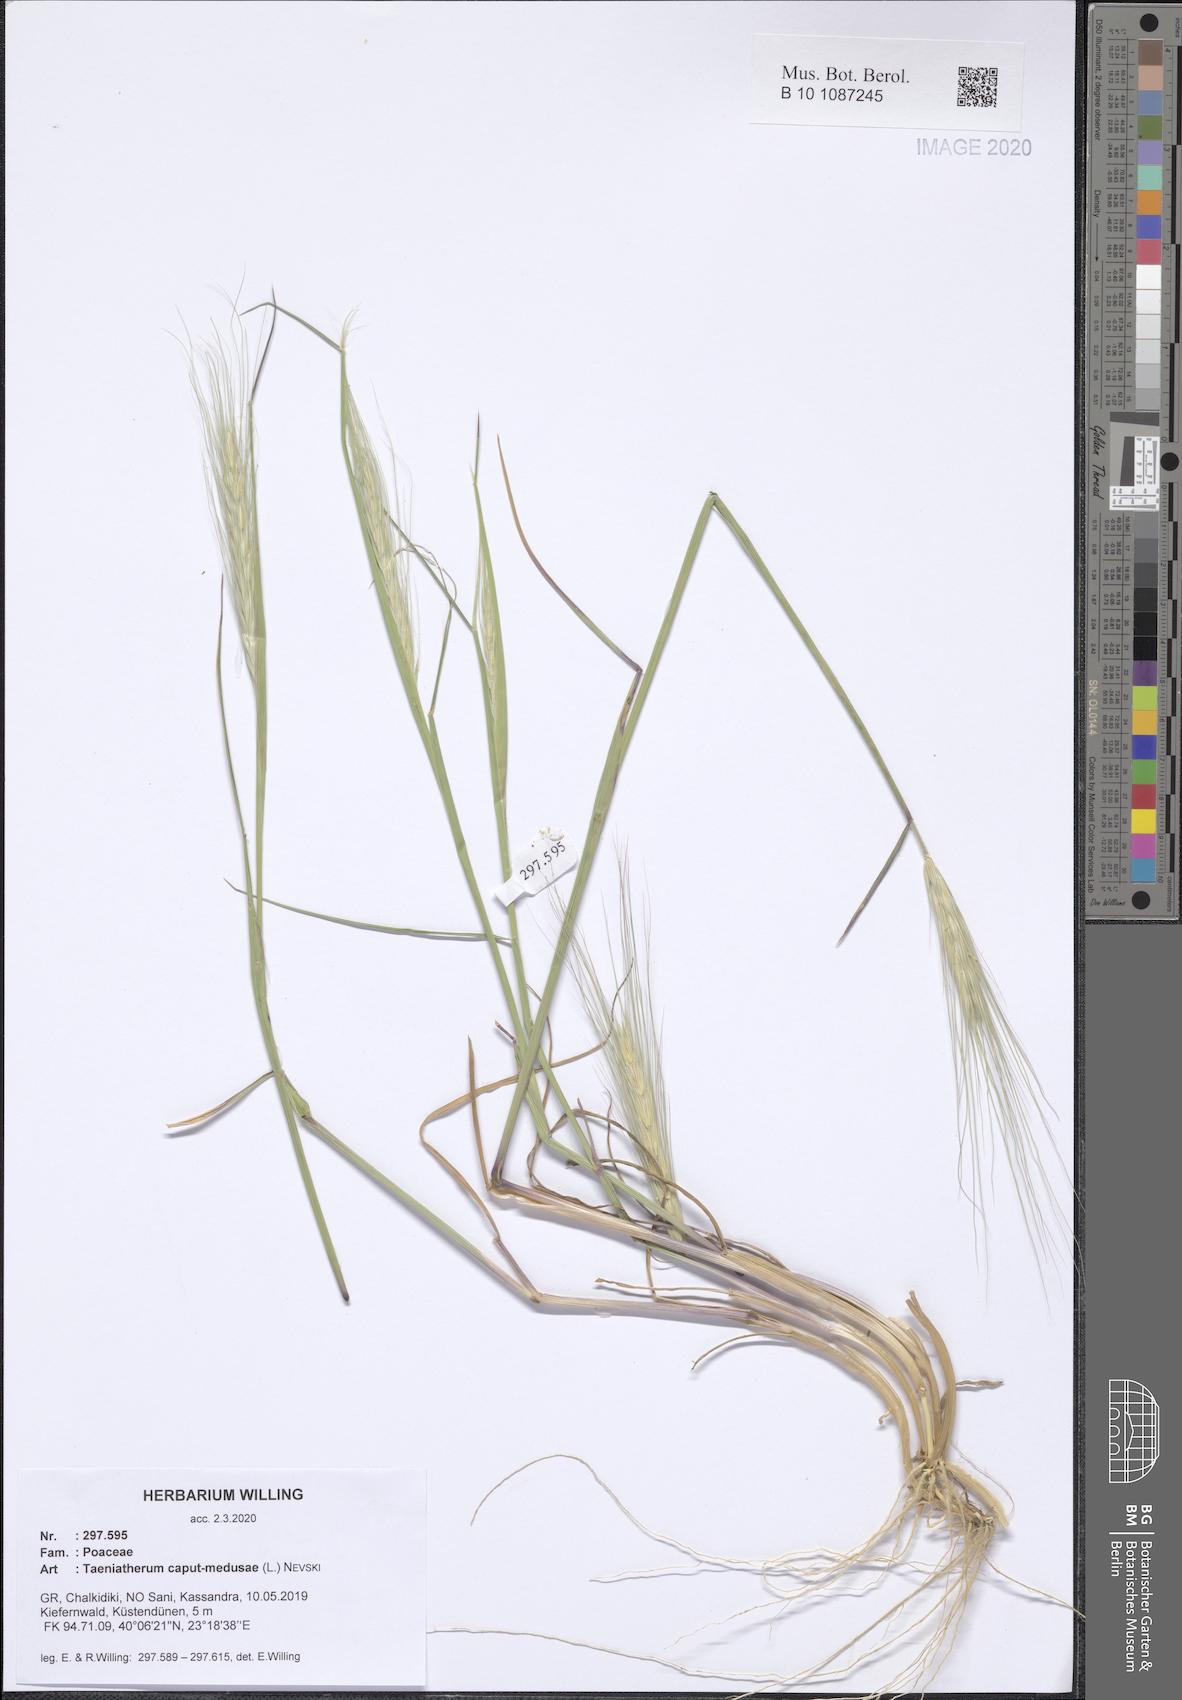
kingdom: Plantae
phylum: Tracheophyta
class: Liliopsida
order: Poales
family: Poaceae
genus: Taeniatherum
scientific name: Taeniatherum caput-medusae
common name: Medusahead
